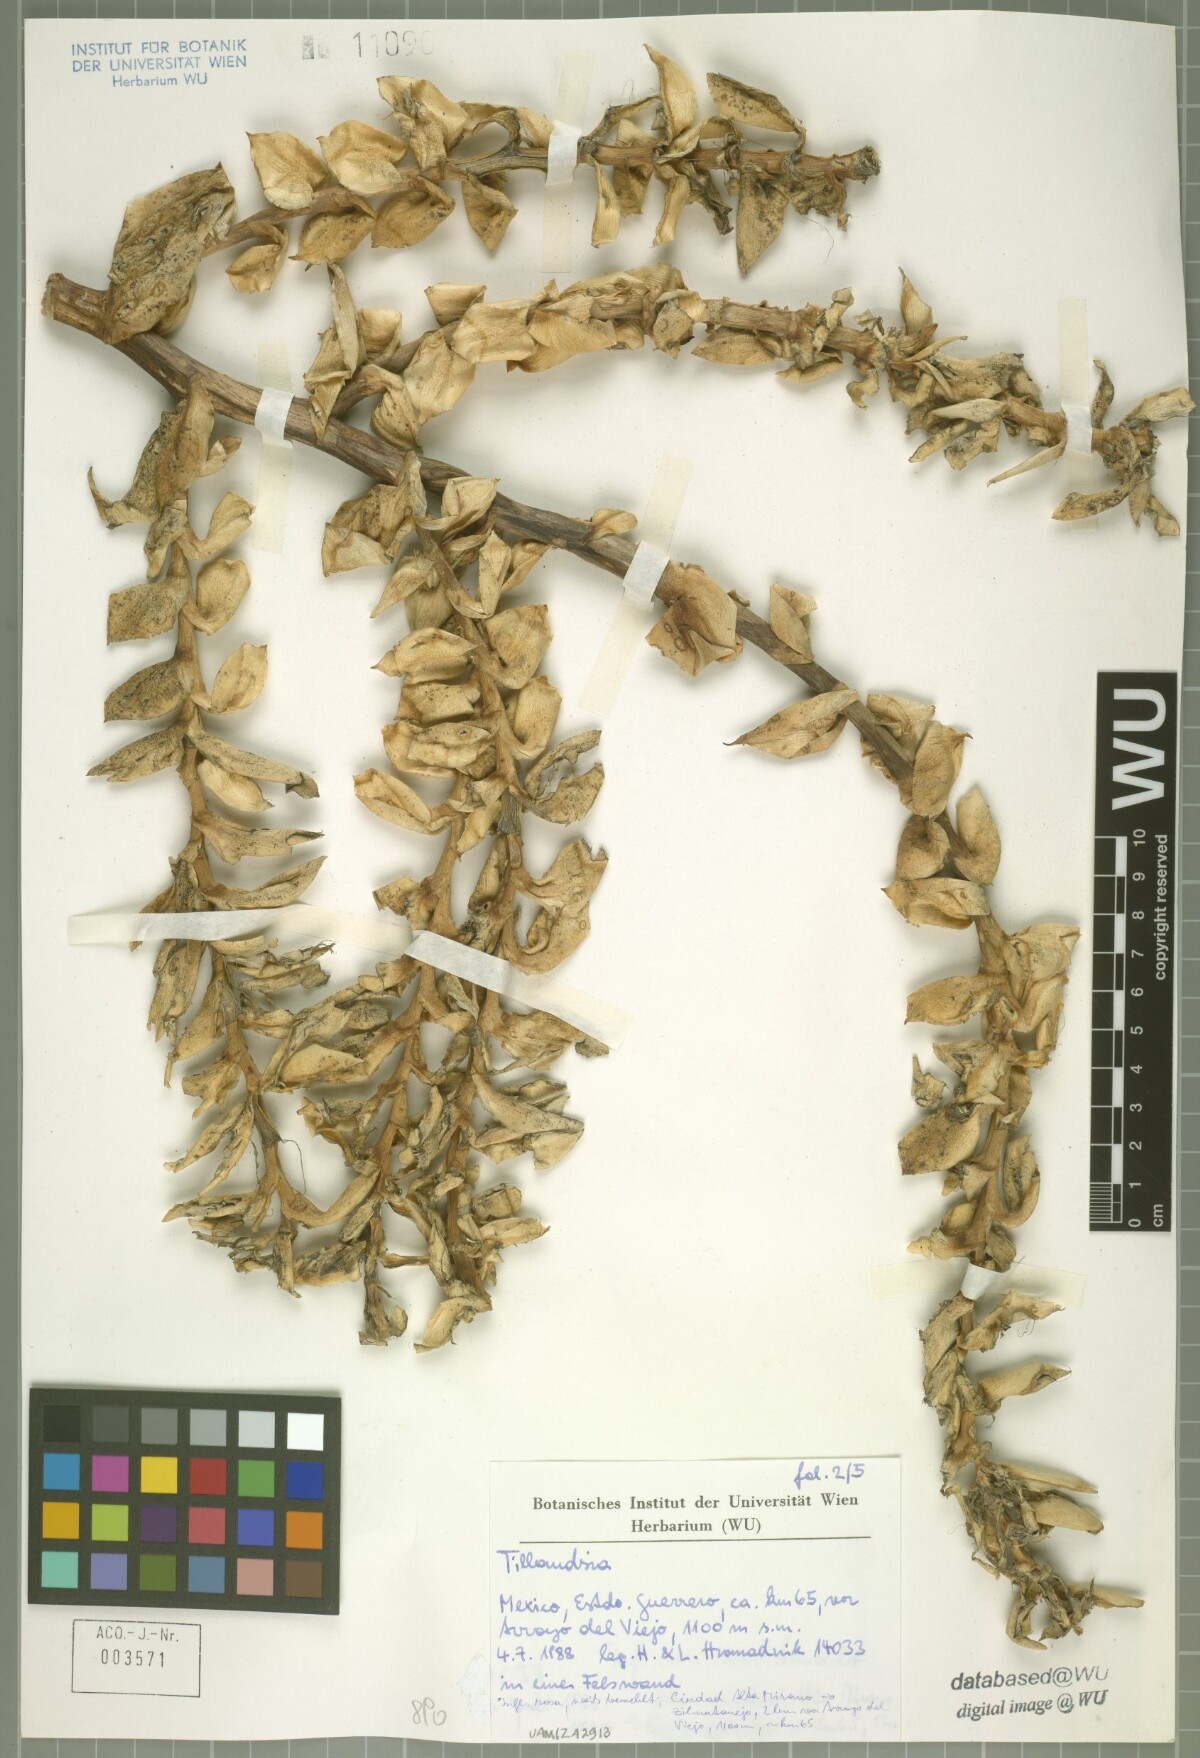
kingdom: Plantae
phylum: Tracheophyta
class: Liliopsida
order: Poales
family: Bromeliaceae
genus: Tillandsia
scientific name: Tillandsia trauneri
